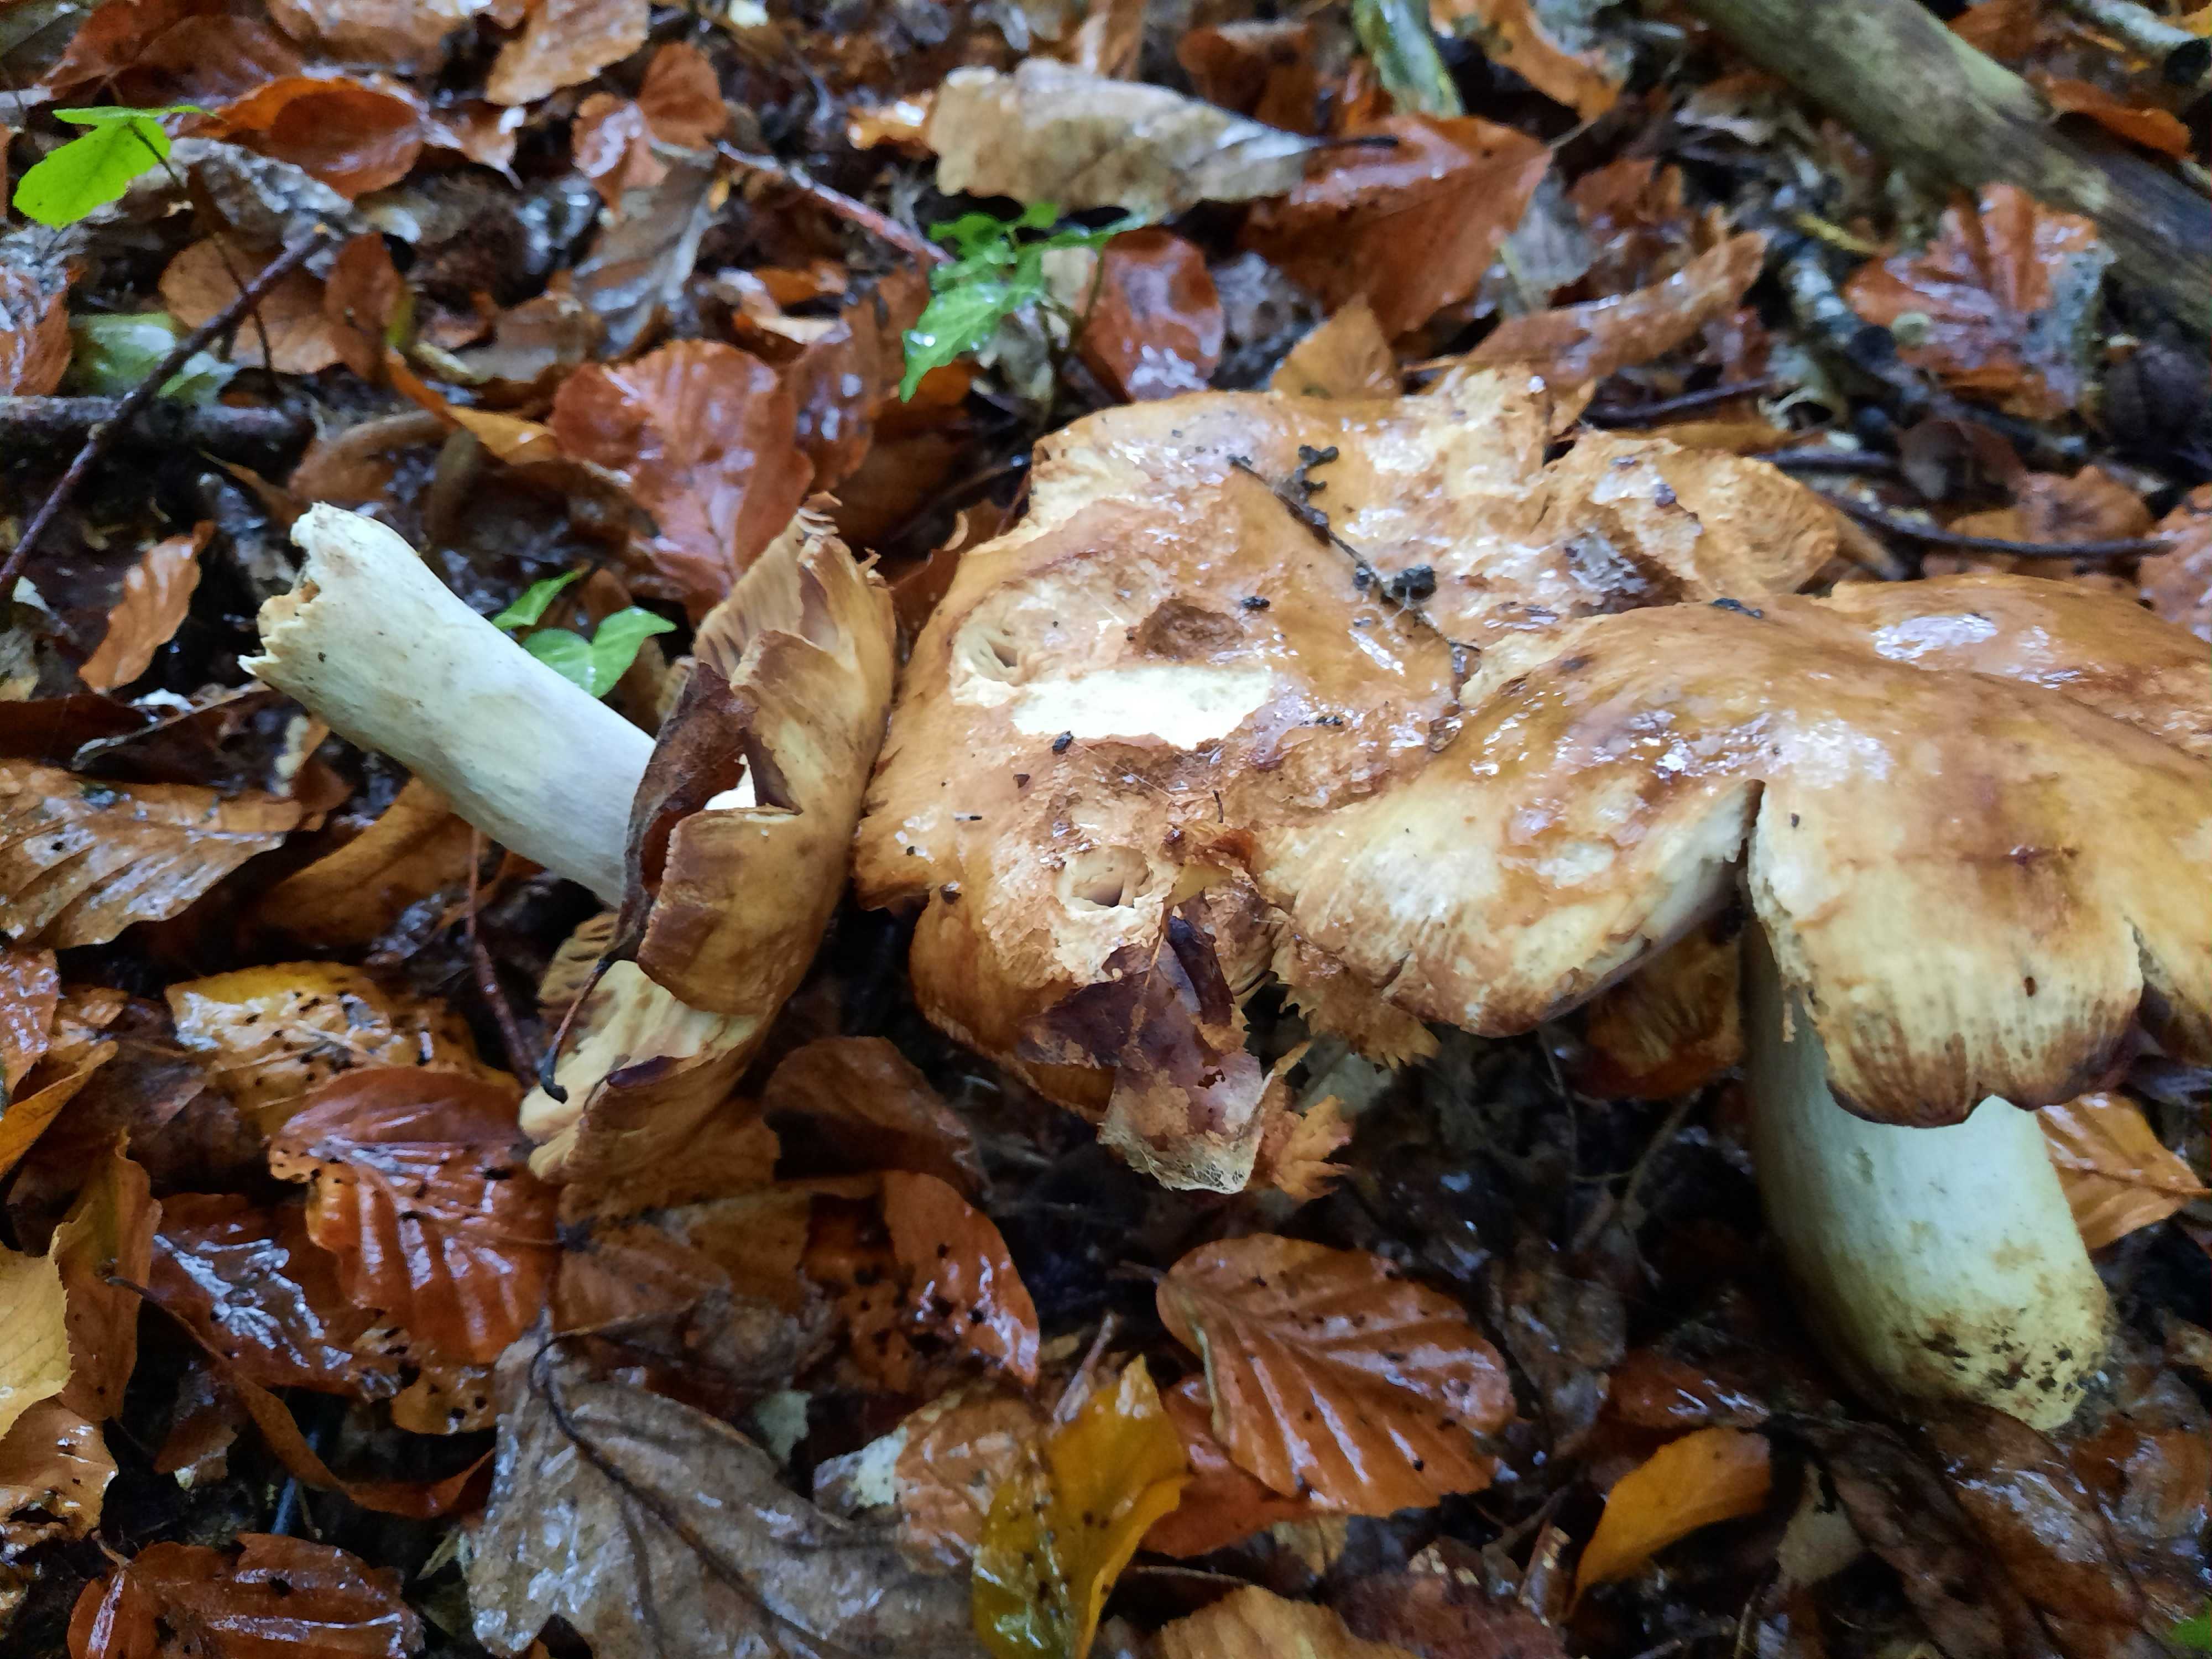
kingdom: Fungi
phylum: Basidiomycota
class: Agaricomycetes
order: Russulales
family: Russulaceae
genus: Russula
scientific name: Russula foetens
